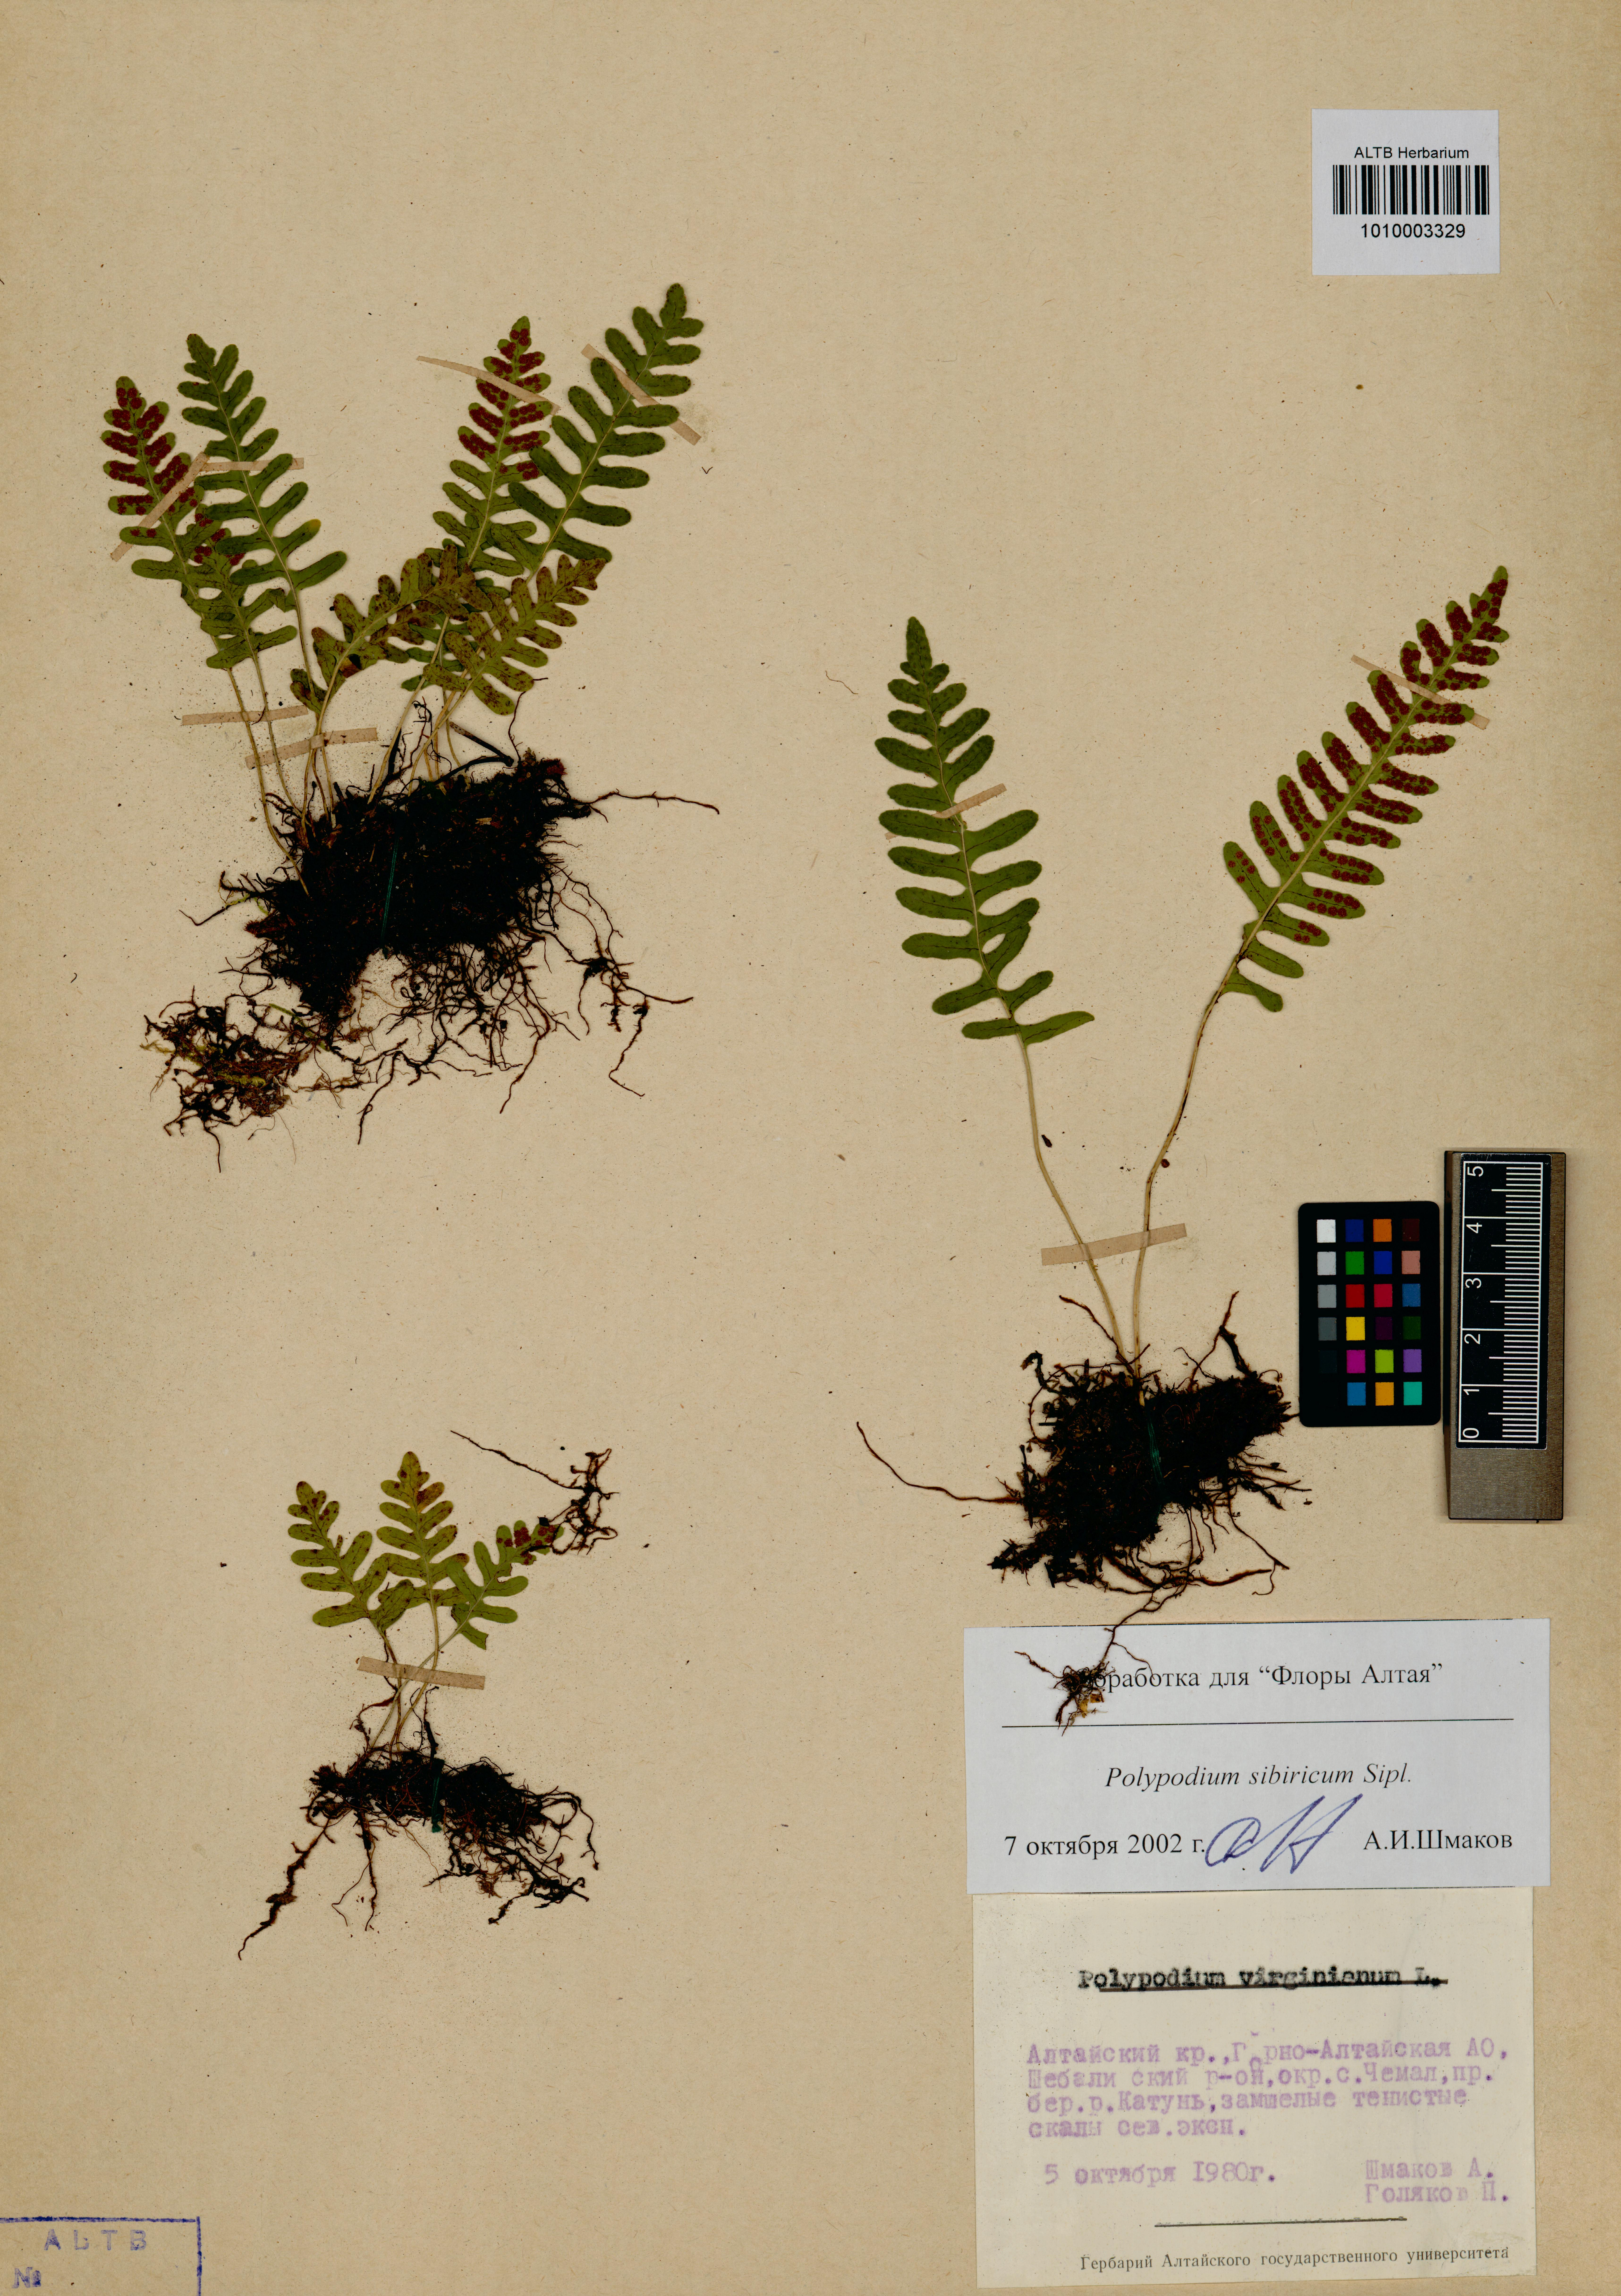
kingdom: Plantae
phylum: Tracheophyta
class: Polypodiopsida
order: Polypodiales
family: Polypodiaceae
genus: Polypodium
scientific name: Polypodium sibiricum
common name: Siberian polypody
